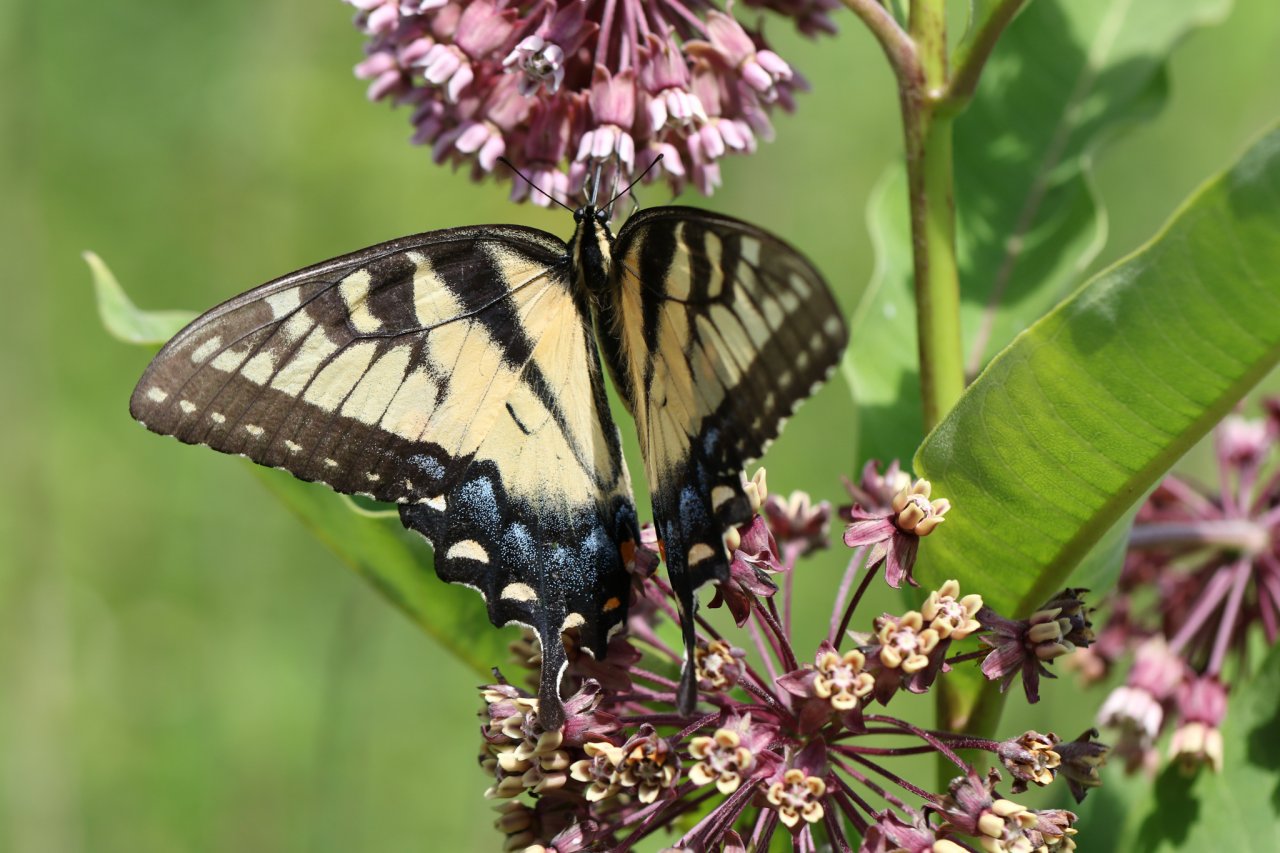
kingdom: Animalia
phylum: Arthropoda
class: Insecta
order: Lepidoptera
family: Papilionidae
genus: Pterourus
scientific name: Pterourus glaucus
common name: Eastern Tiger Swallowtail
